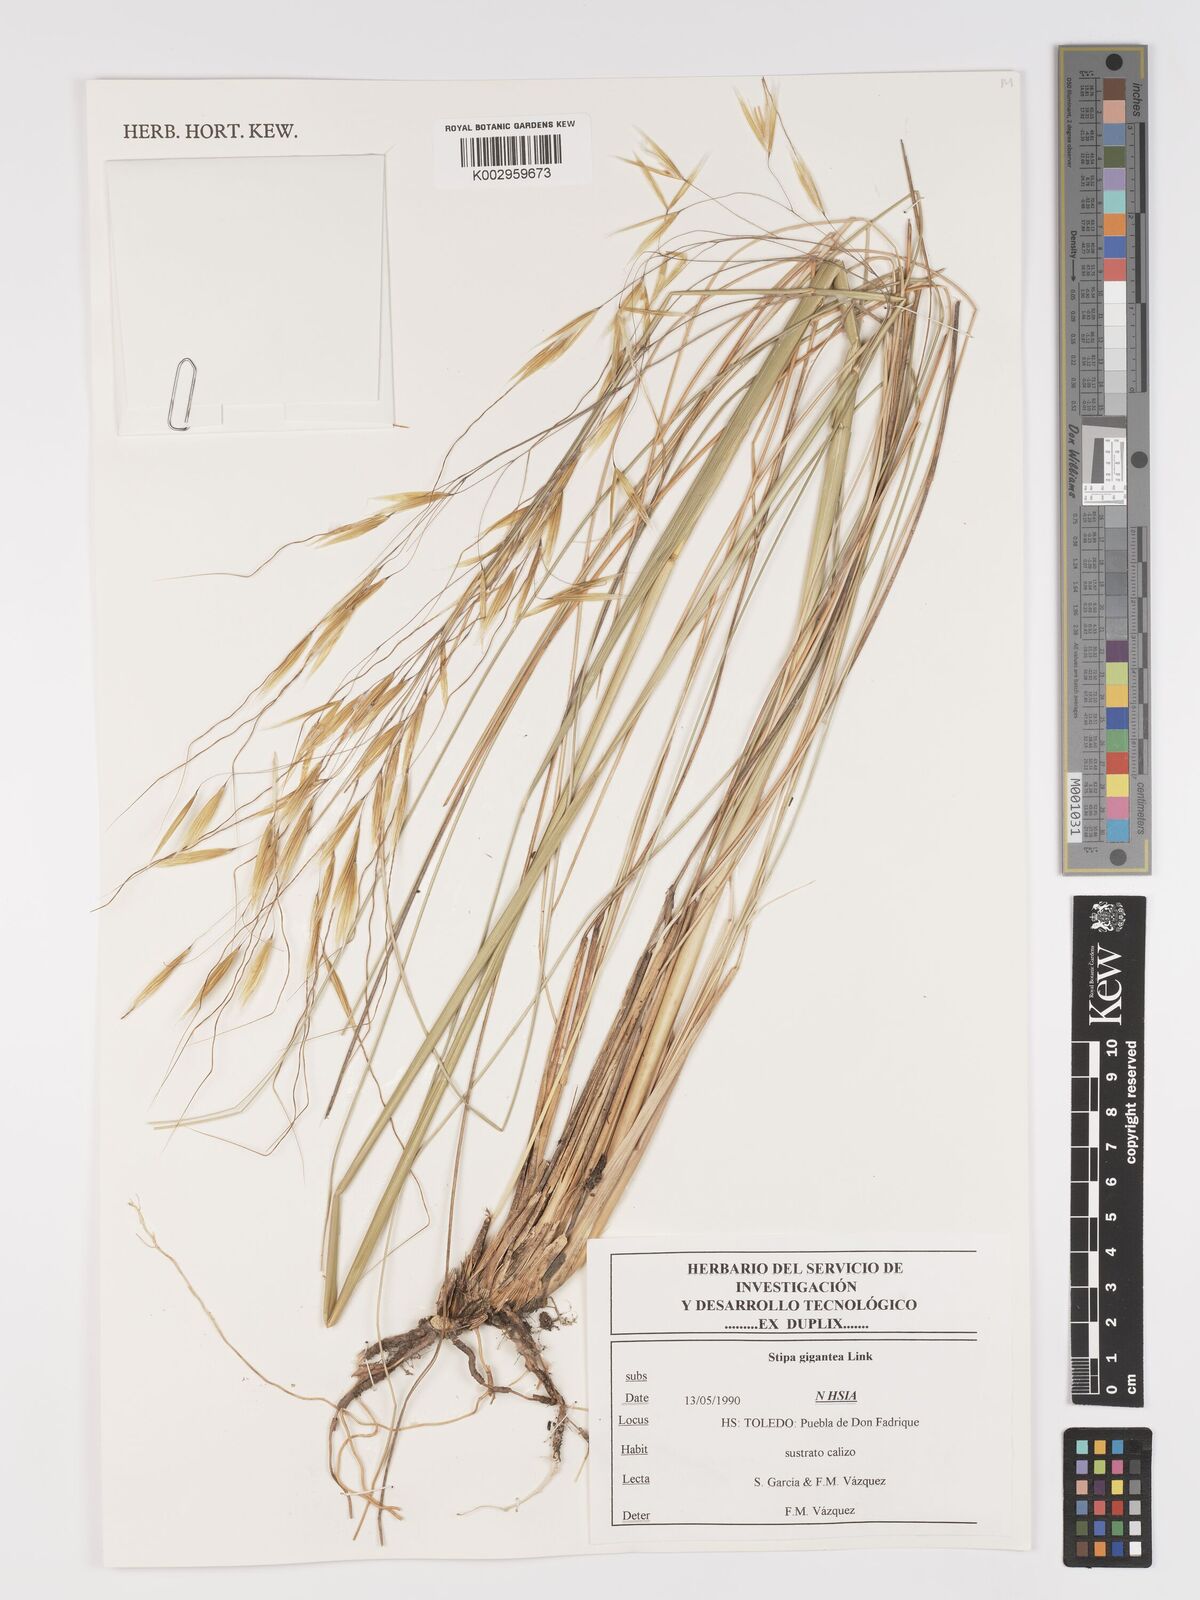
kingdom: Plantae
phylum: Tracheophyta
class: Liliopsida
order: Poales
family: Poaceae
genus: Celtica
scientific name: Celtica gigantea
